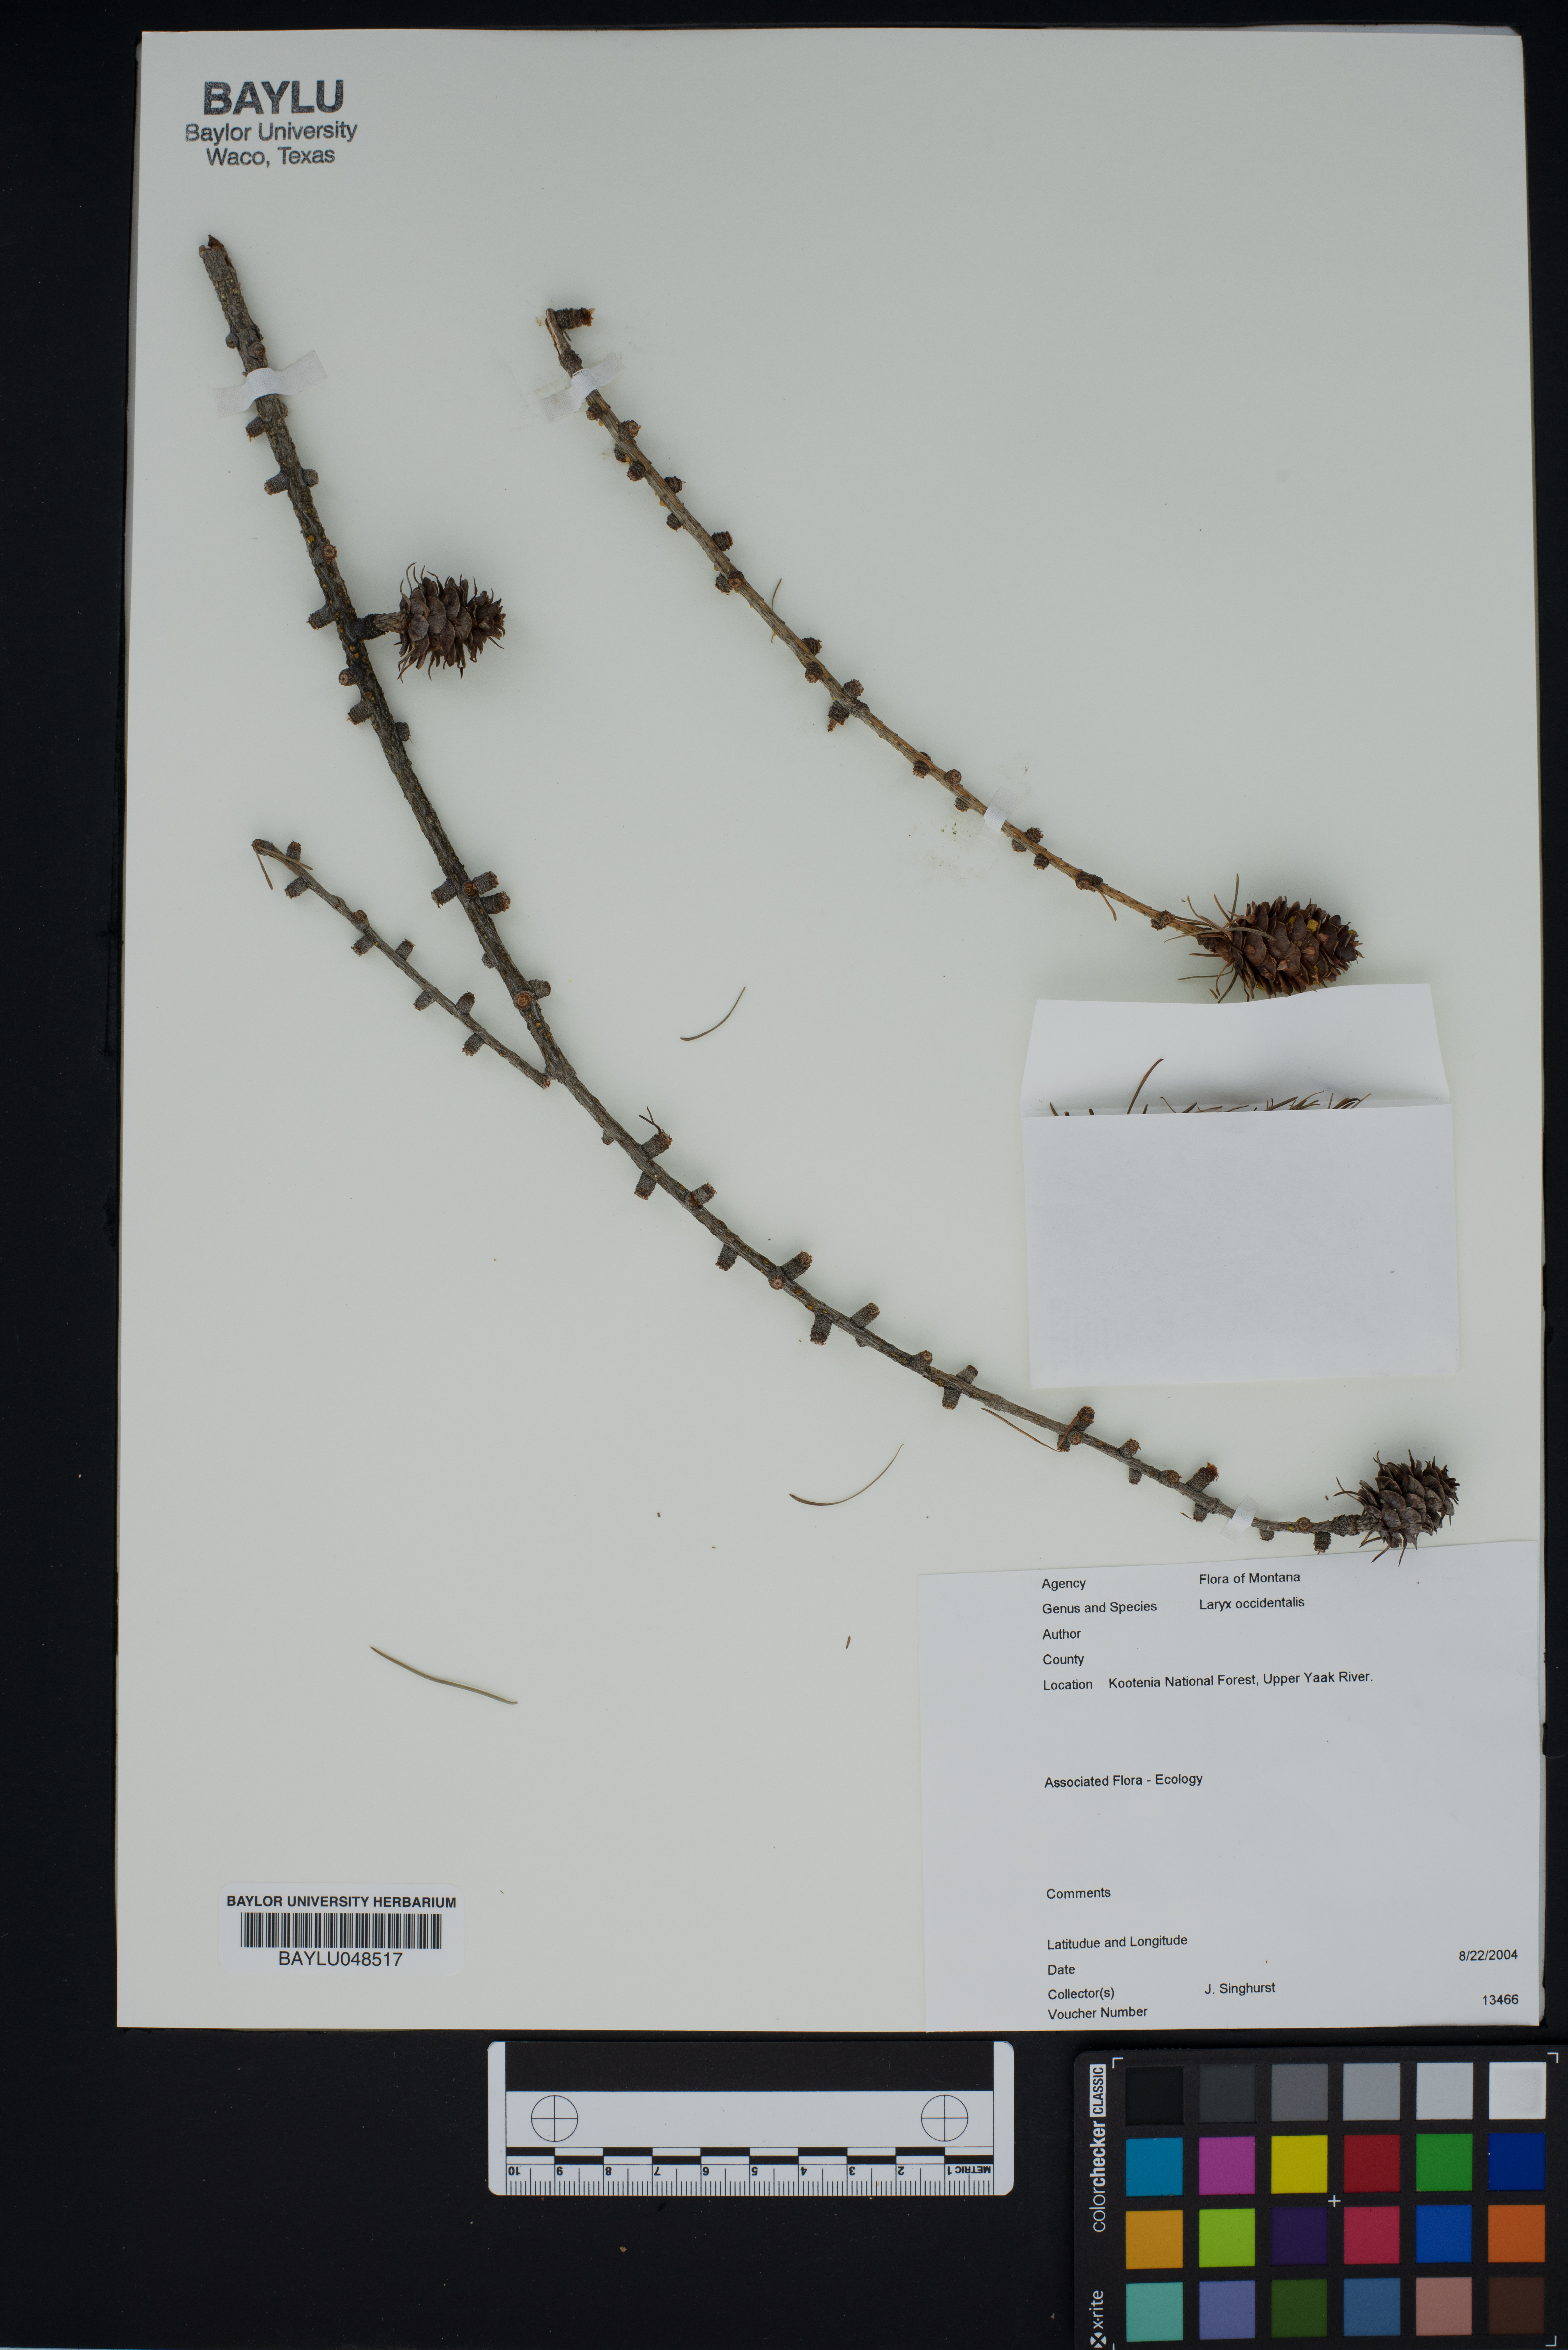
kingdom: Plantae
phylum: Tracheophyta
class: Pinopsida
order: Pinales
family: Pinaceae
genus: Larix
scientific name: Larix occidentalis
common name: Western larch
